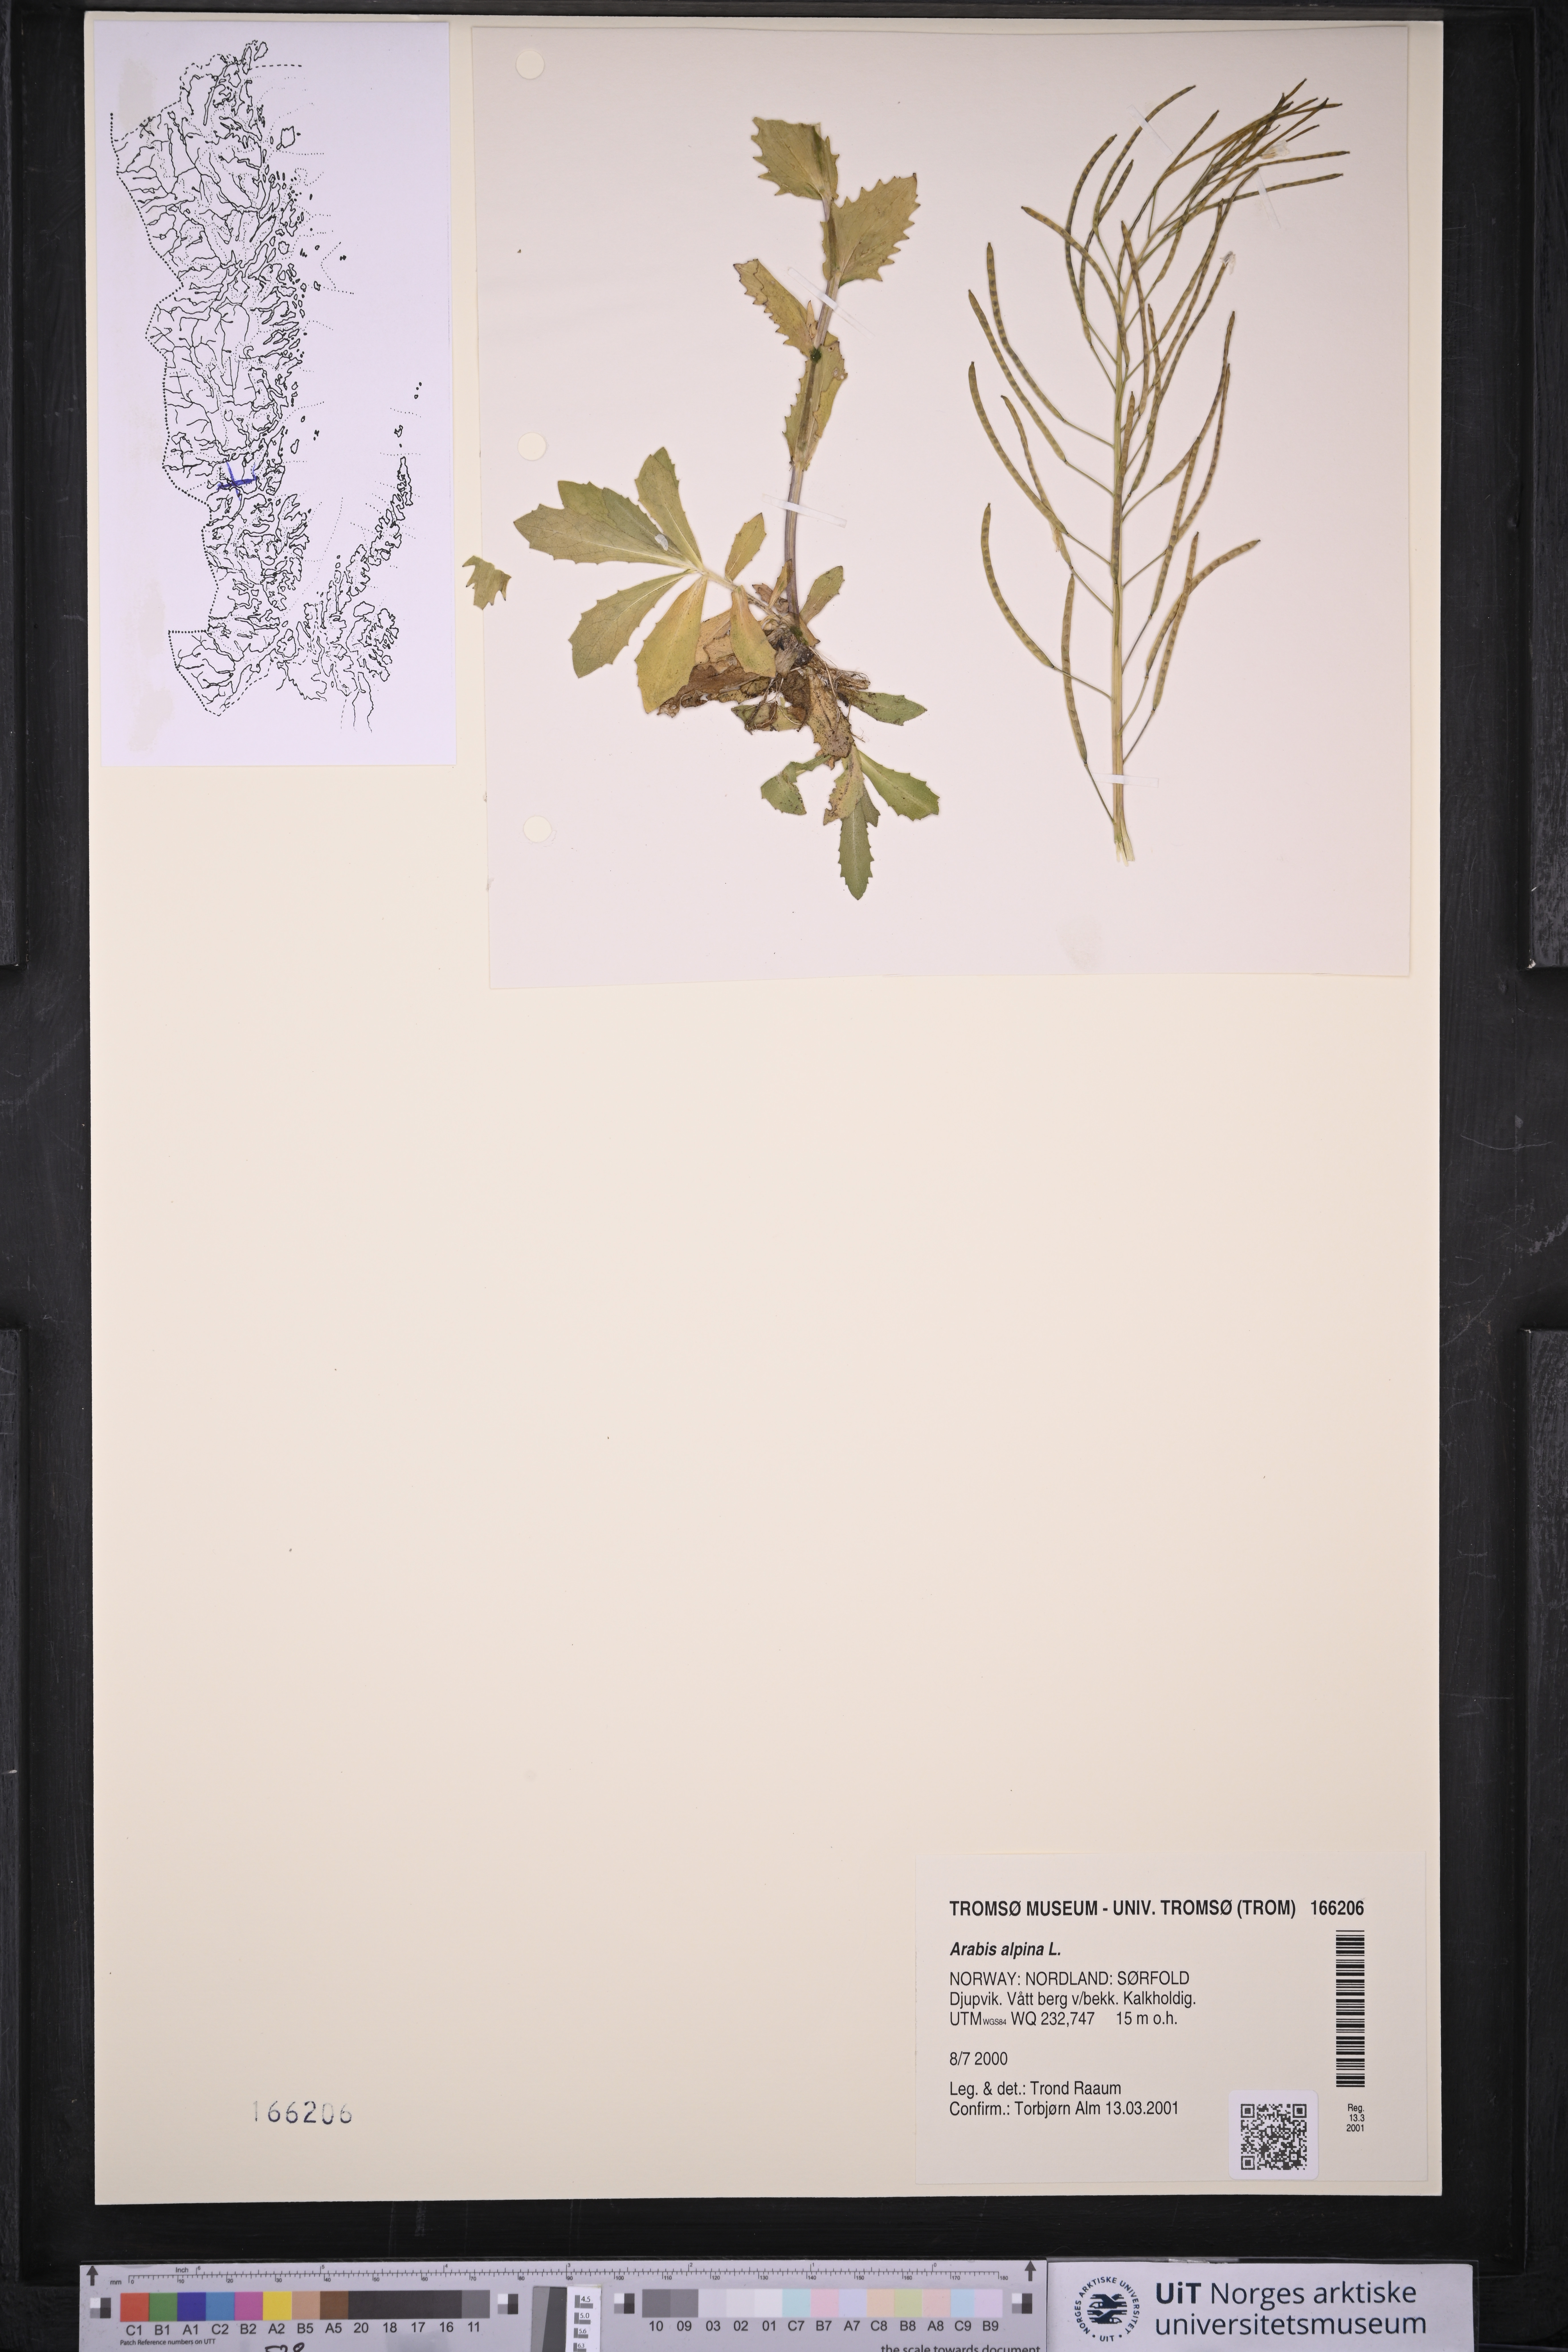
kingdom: Plantae
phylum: Tracheophyta
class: Magnoliopsida
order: Brassicales
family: Brassicaceae
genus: Arabis
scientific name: Arabis alpina
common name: Alpine rock-cress
